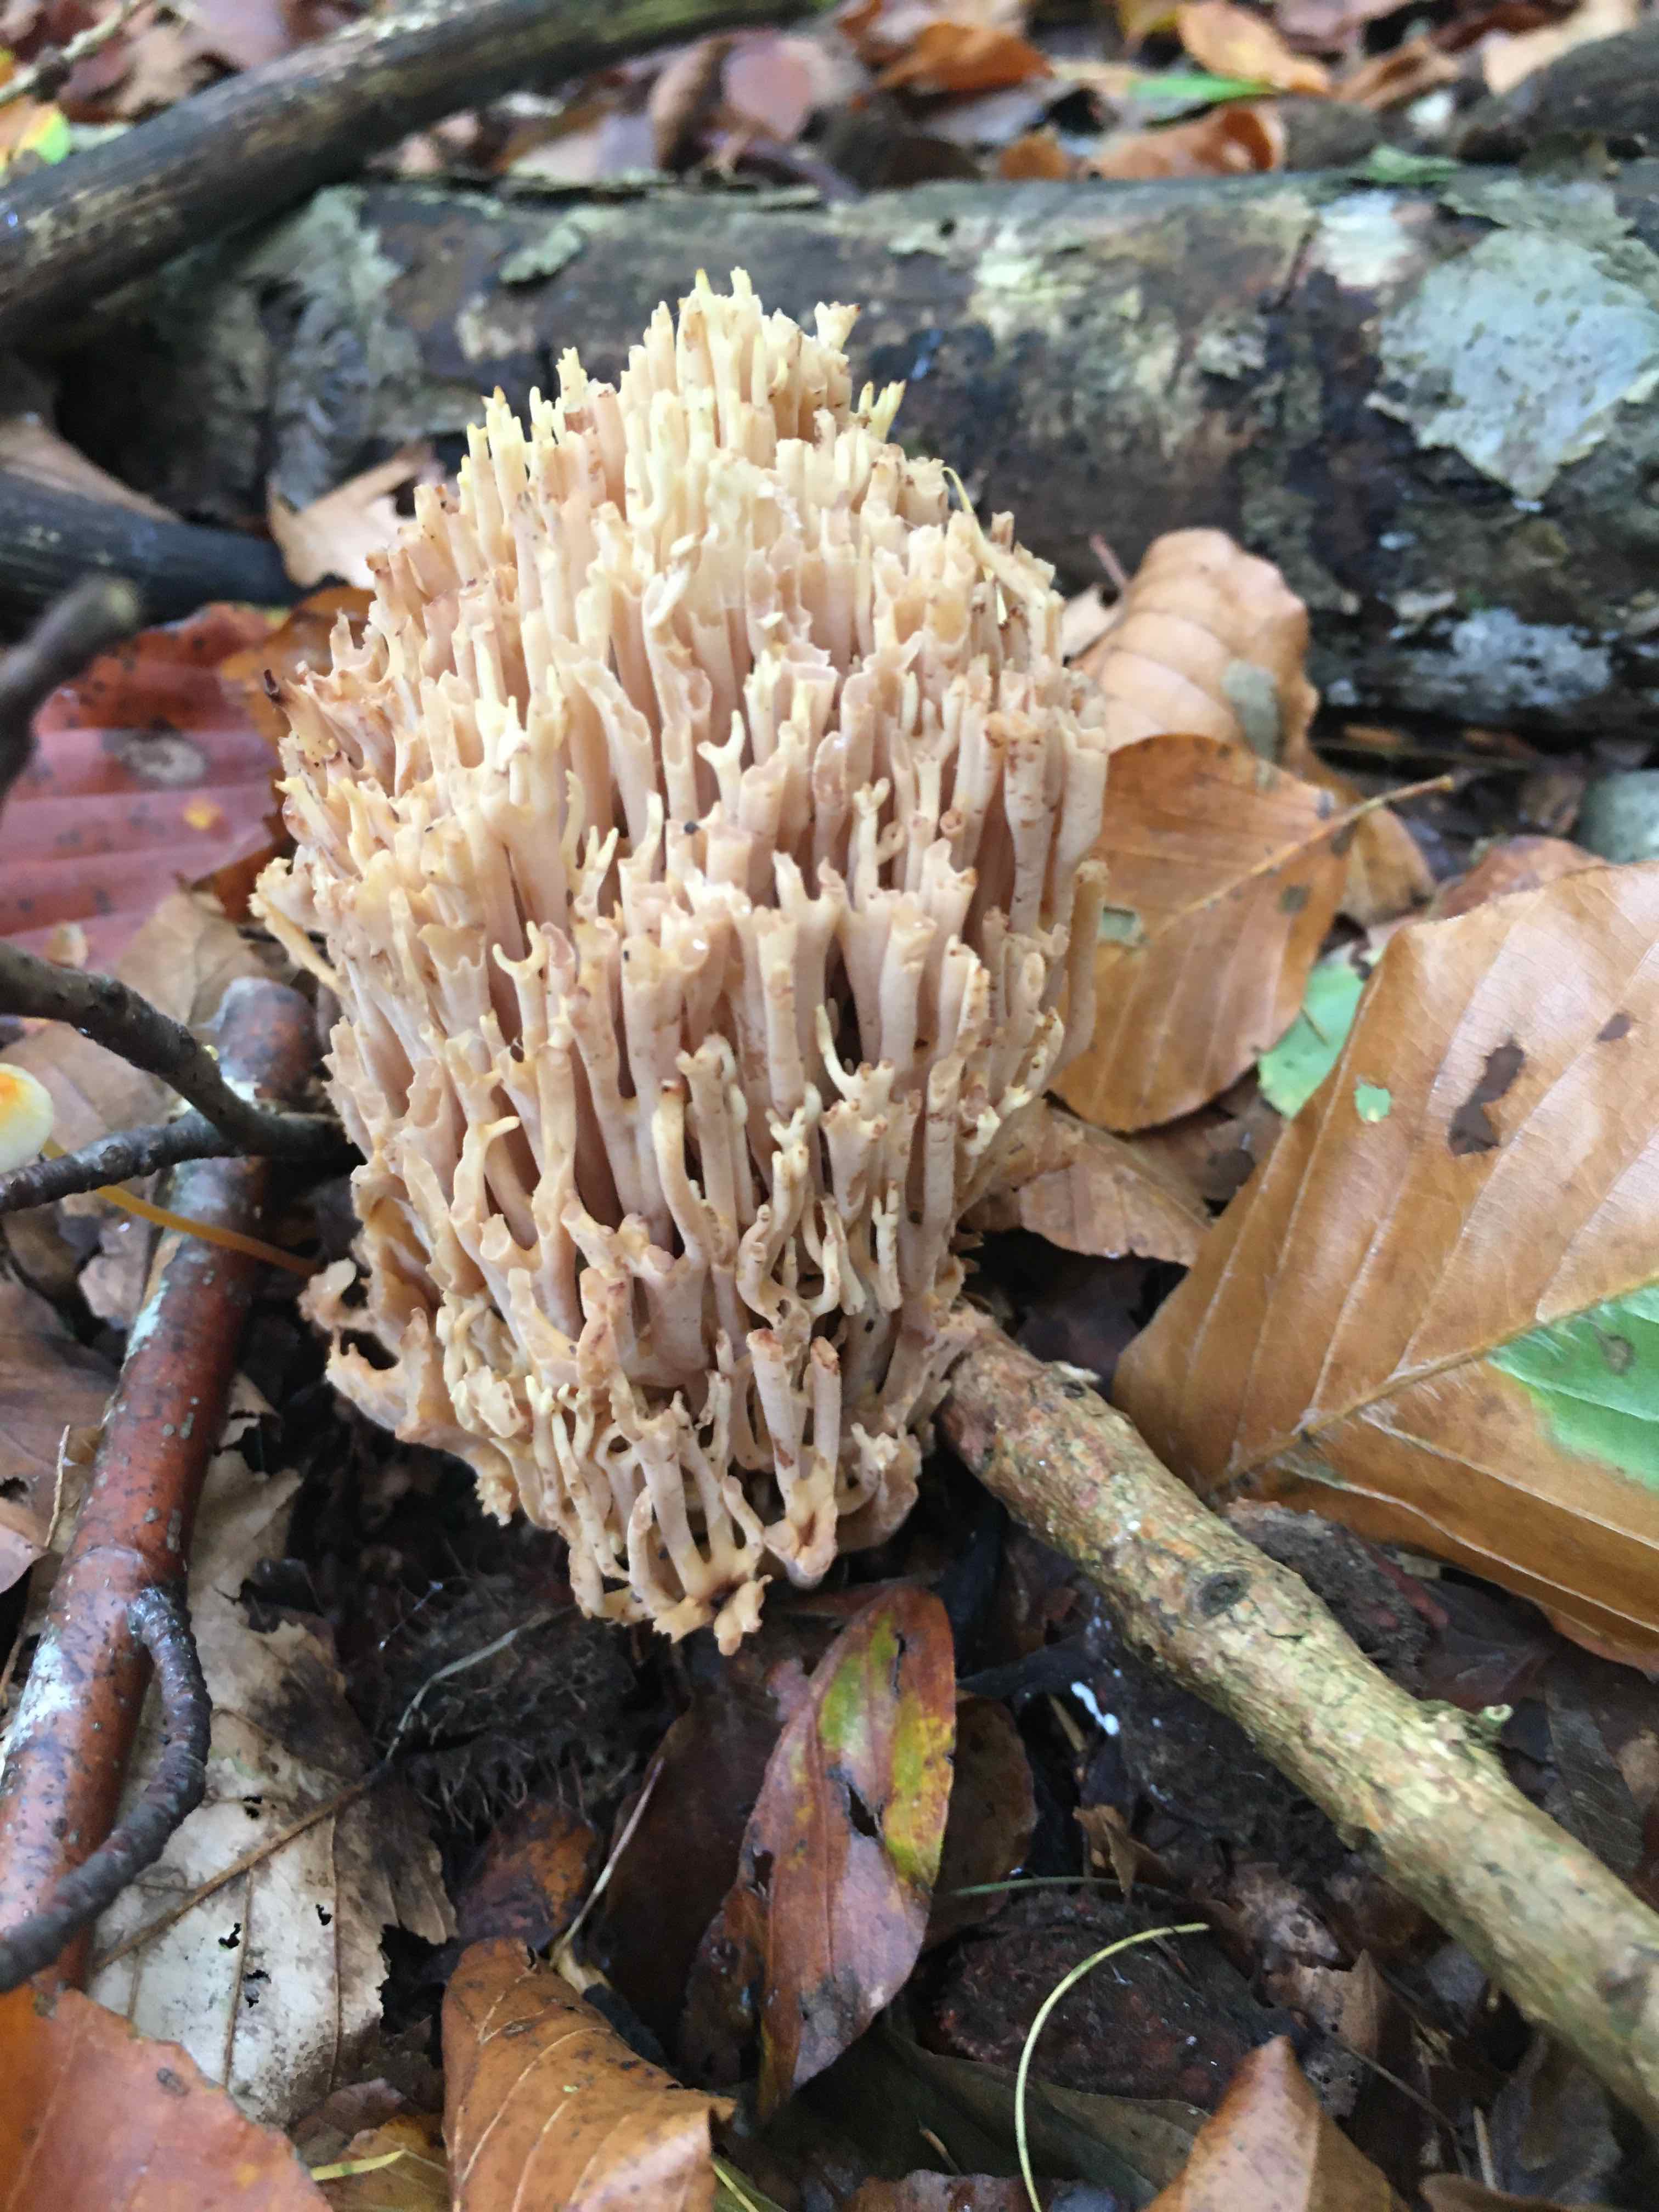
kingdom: Fungi
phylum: Basidiomycota
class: Agaricomycetes
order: Gomphales
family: Gomphaceae
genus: Ramaria
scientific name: Ramaria stricta
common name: rank koralsvamp
